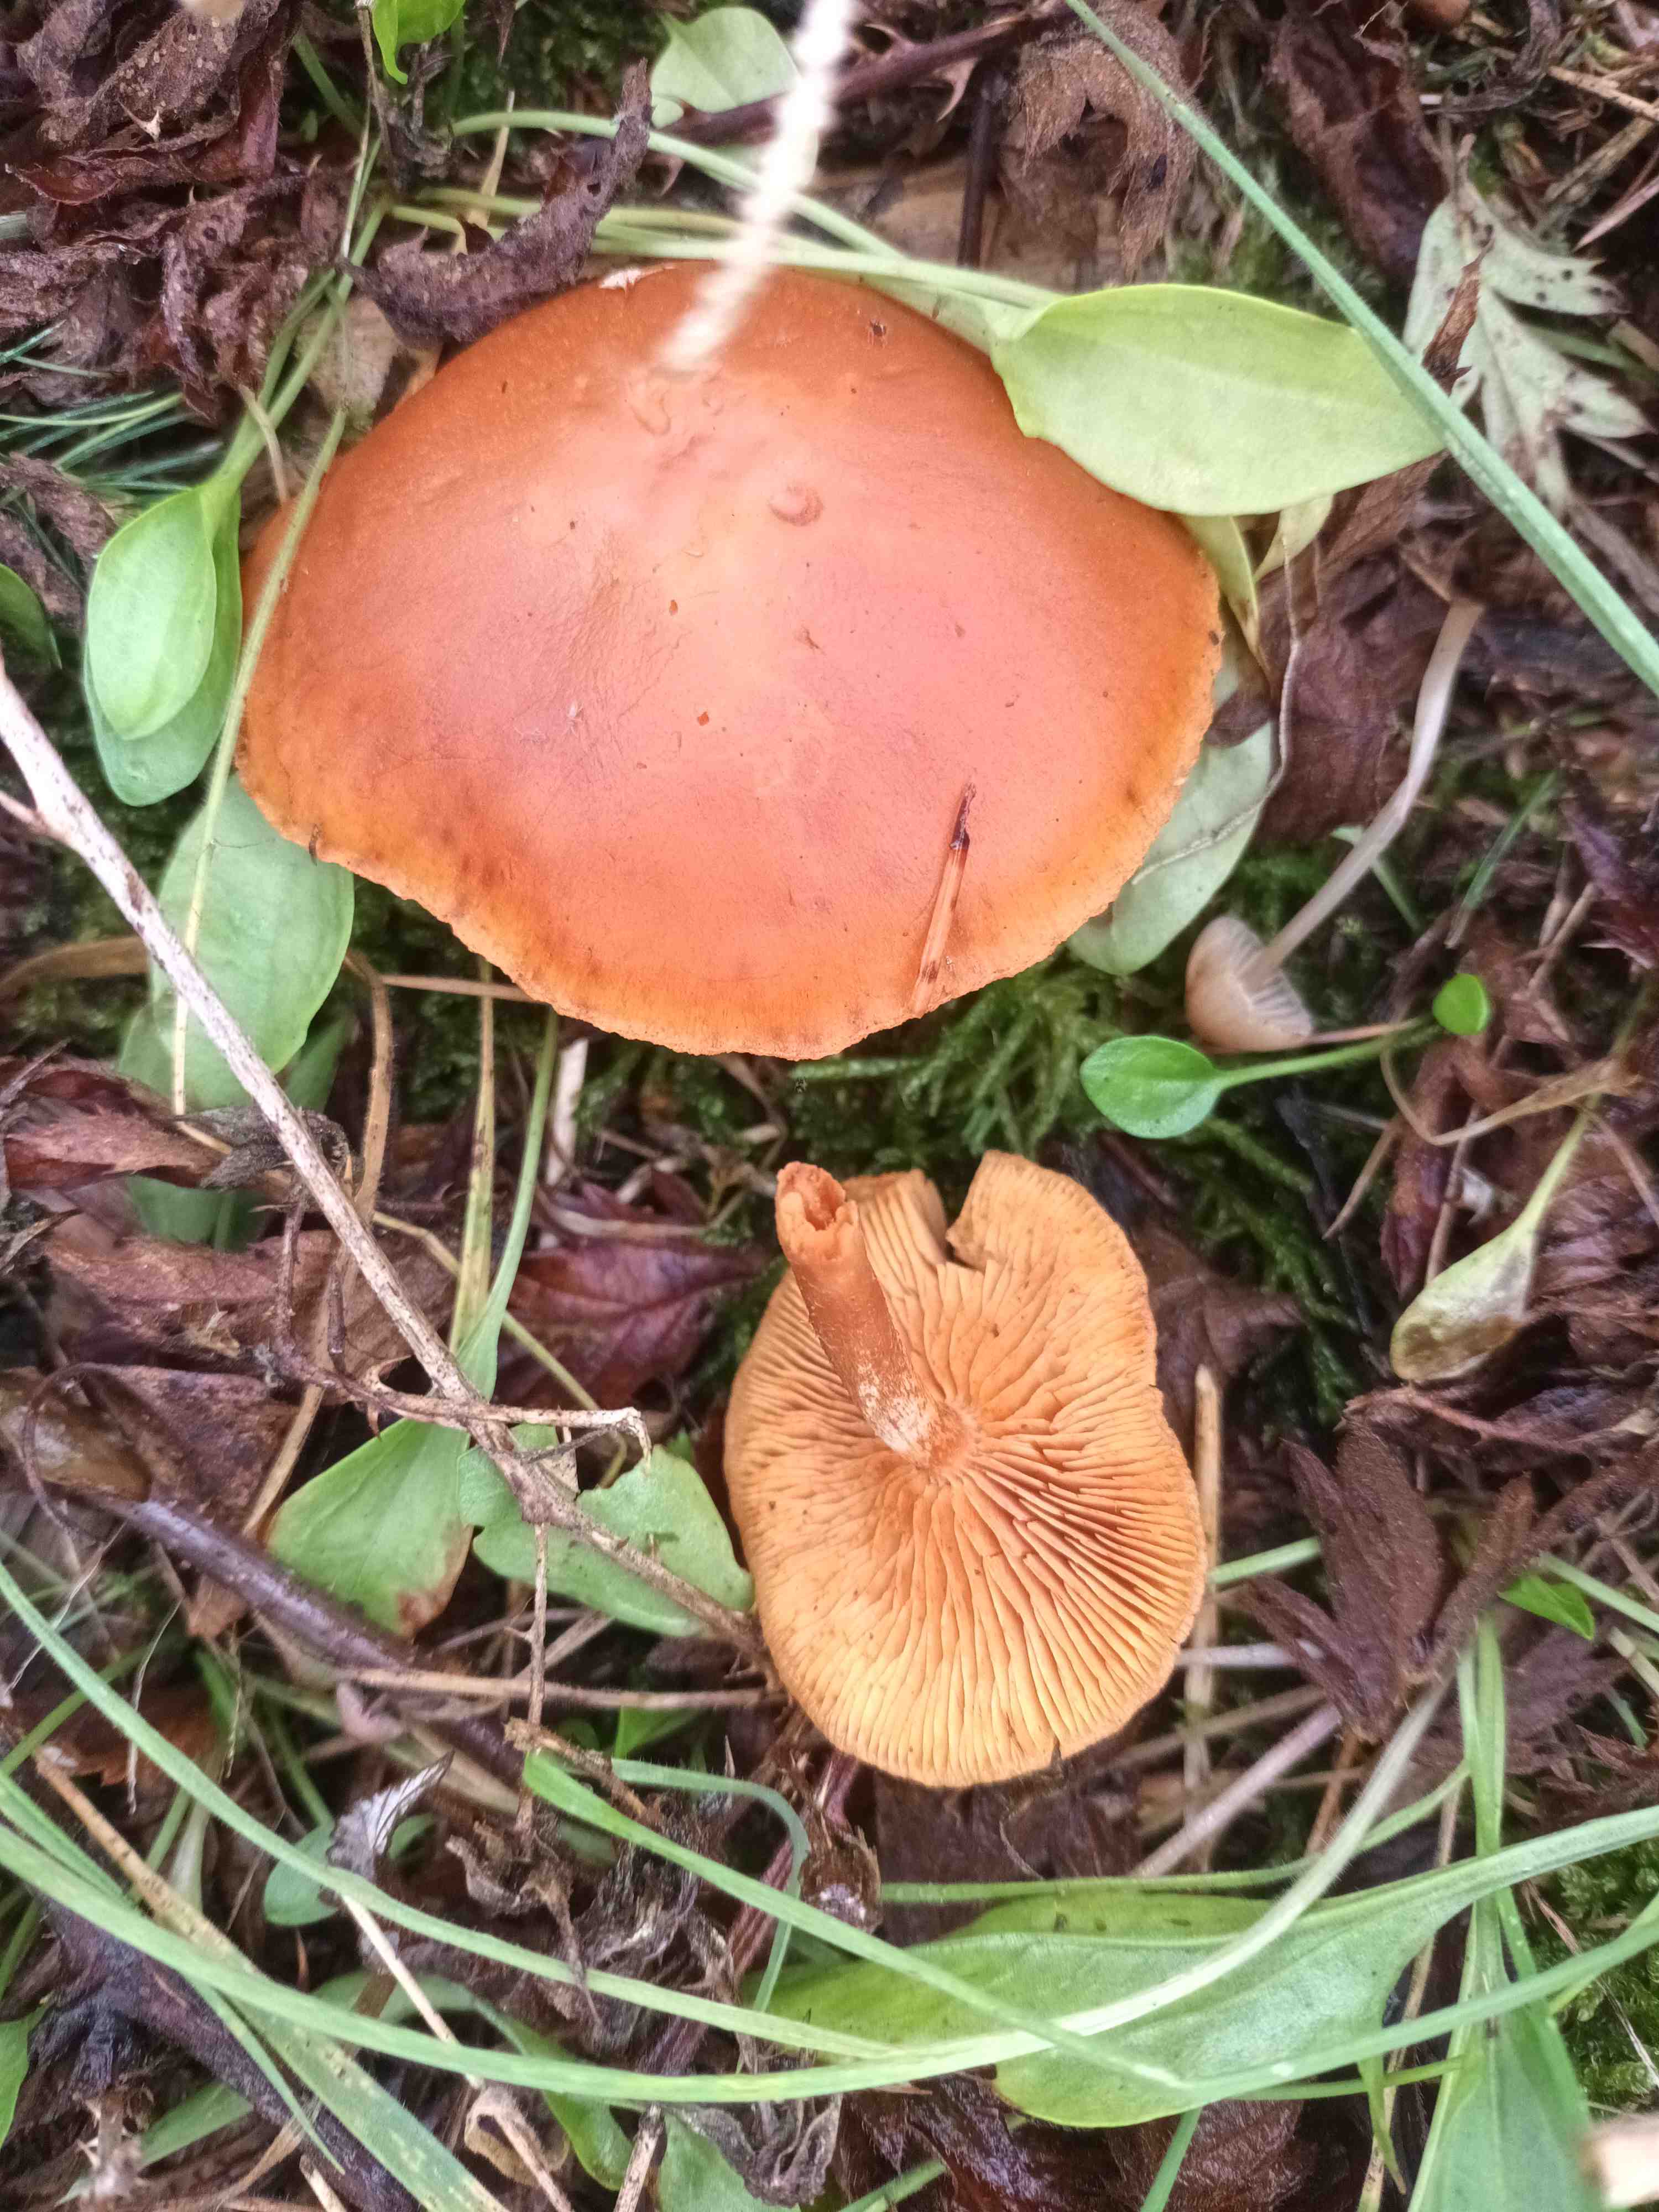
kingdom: Fungi
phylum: Basidiomycota
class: Agaricomycetes
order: Agaricales
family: Hymenogastraceae
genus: Gymnopilus
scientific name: Gymnopilus penetrans
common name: plettet flammehat
